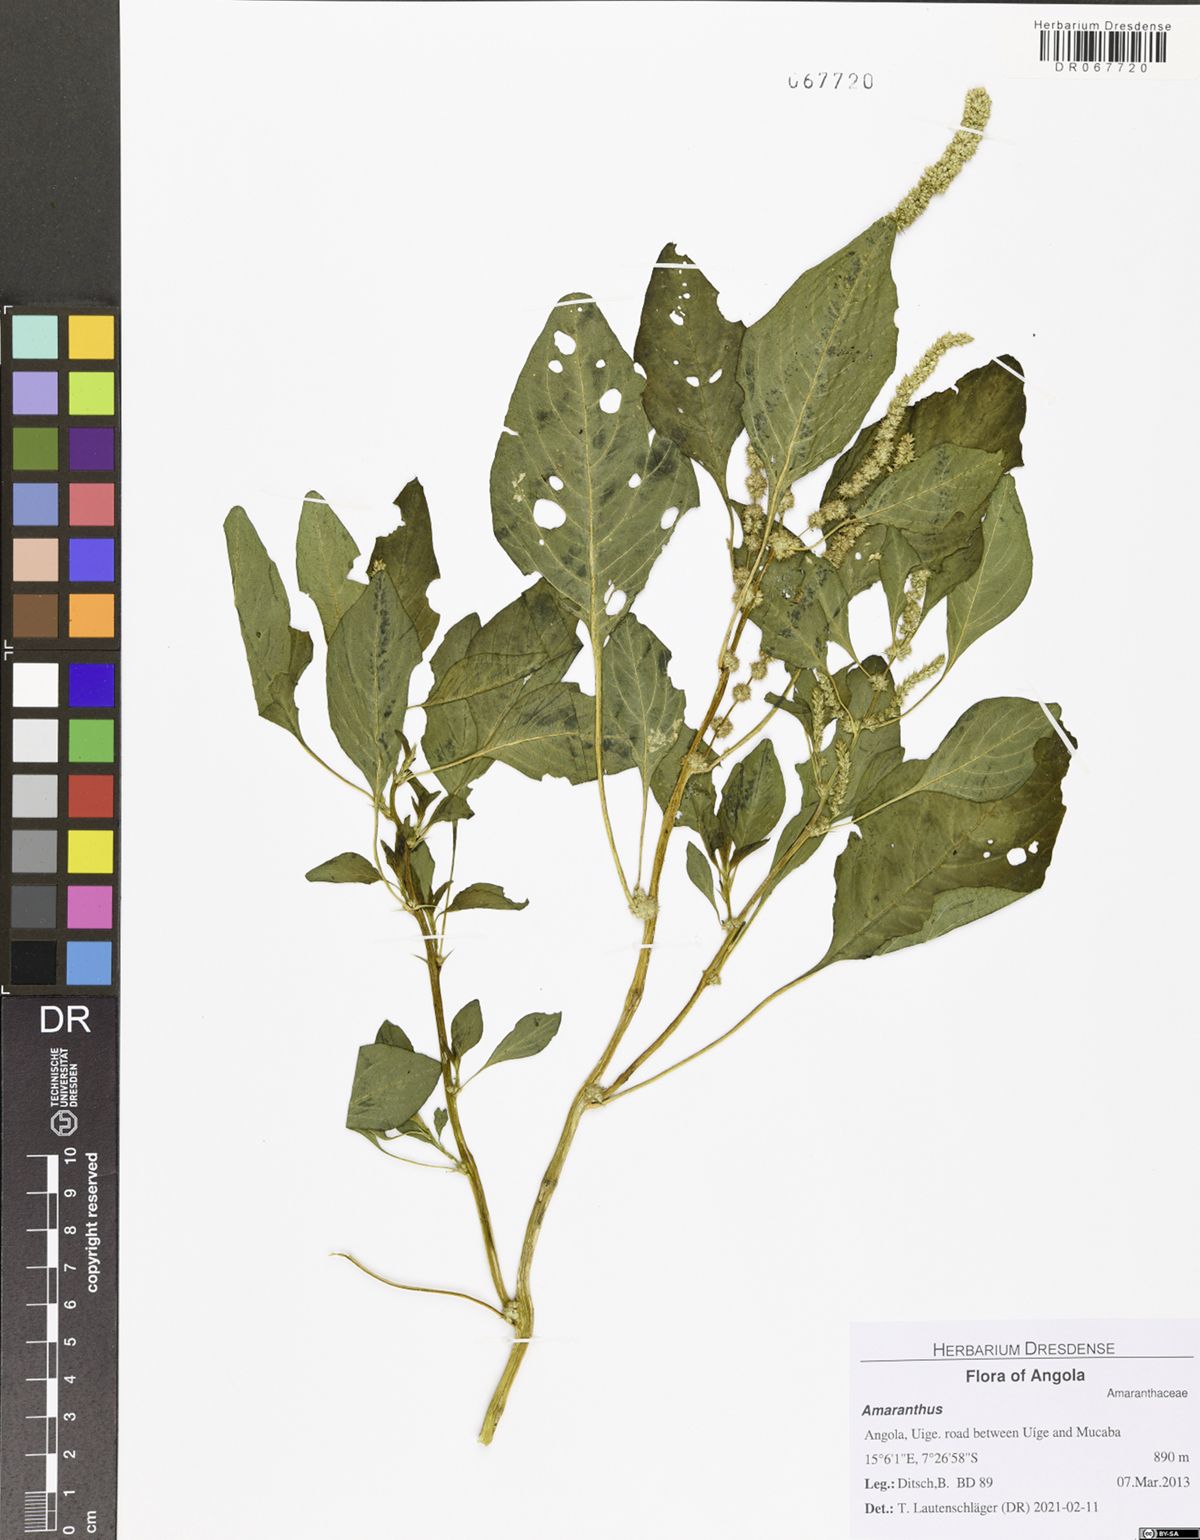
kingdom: Plantae
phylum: Tracheophyta
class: Magnoliopsida
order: Caryophyllales
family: Amaranthaceae
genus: Amaranthus
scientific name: Amaranthus dubius
